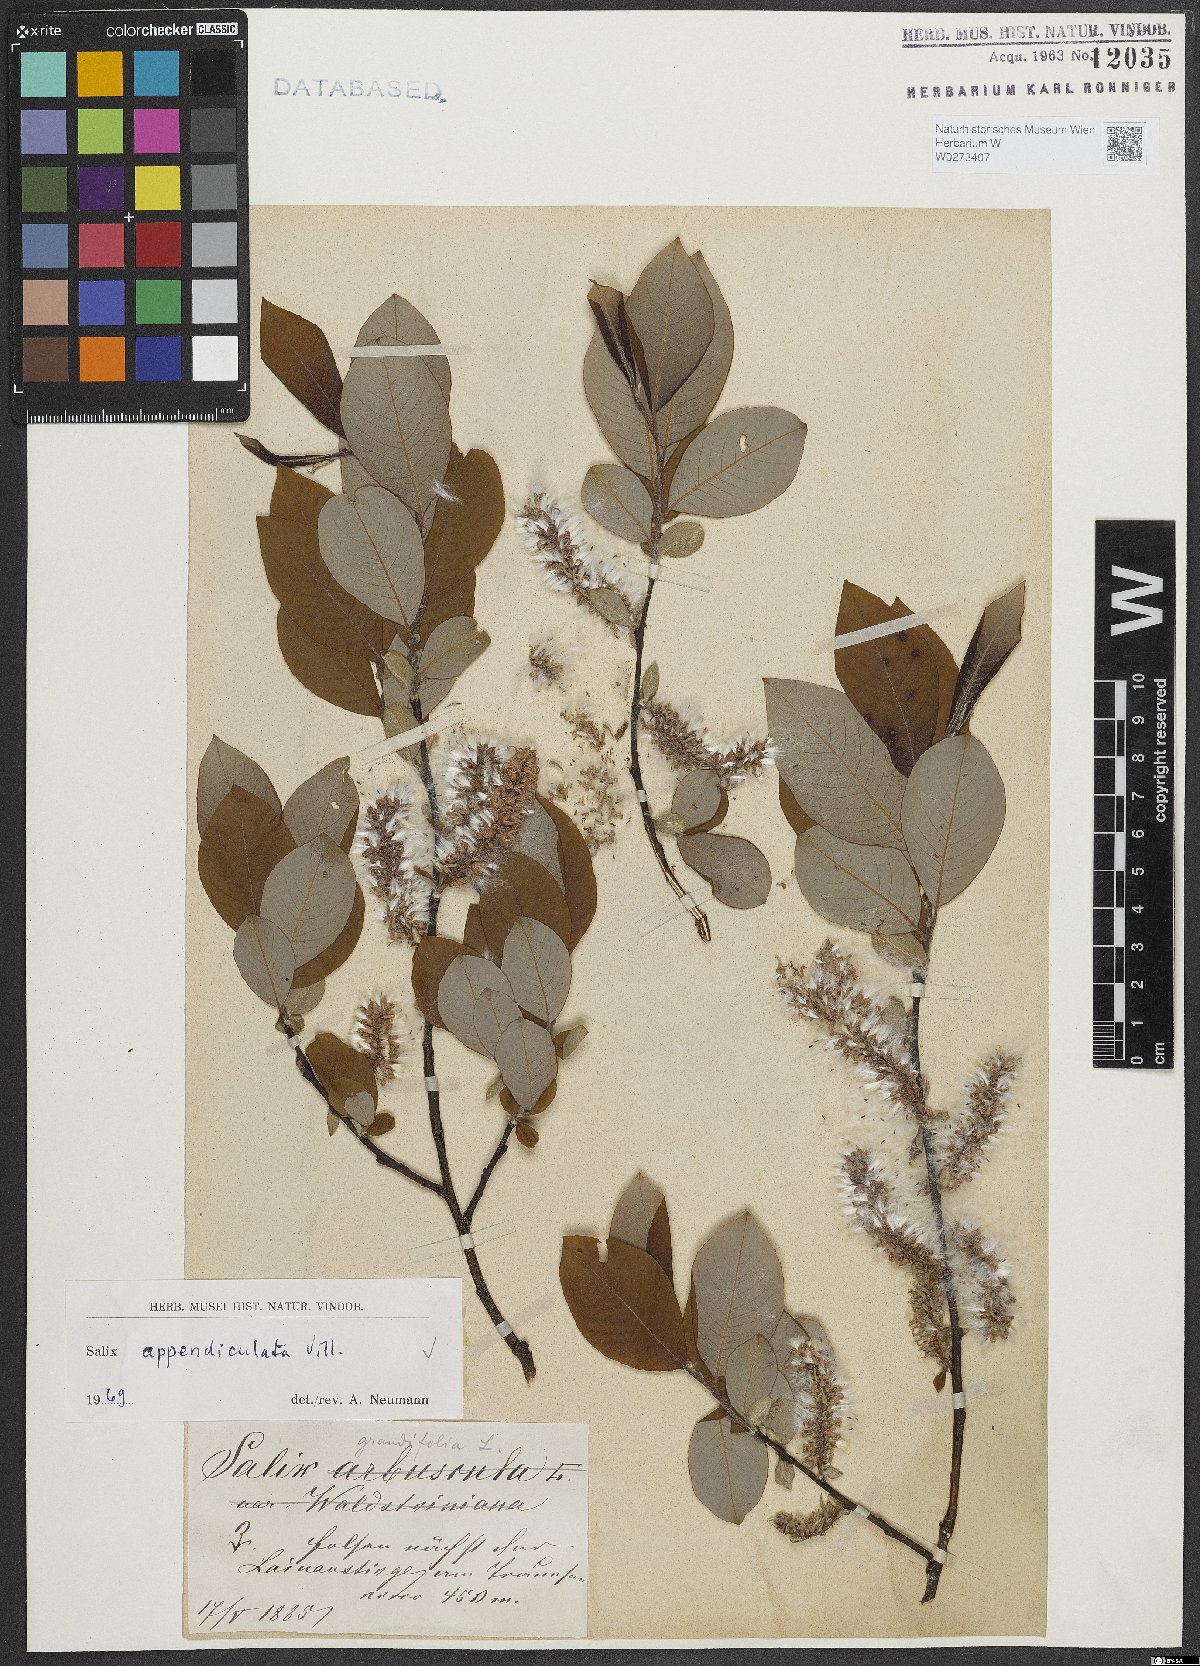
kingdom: Plantae
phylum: Tracheophyta
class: Magnoliopsida
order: Malpighiales
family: Salicaceae
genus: Salix
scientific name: Salix appendiculata
